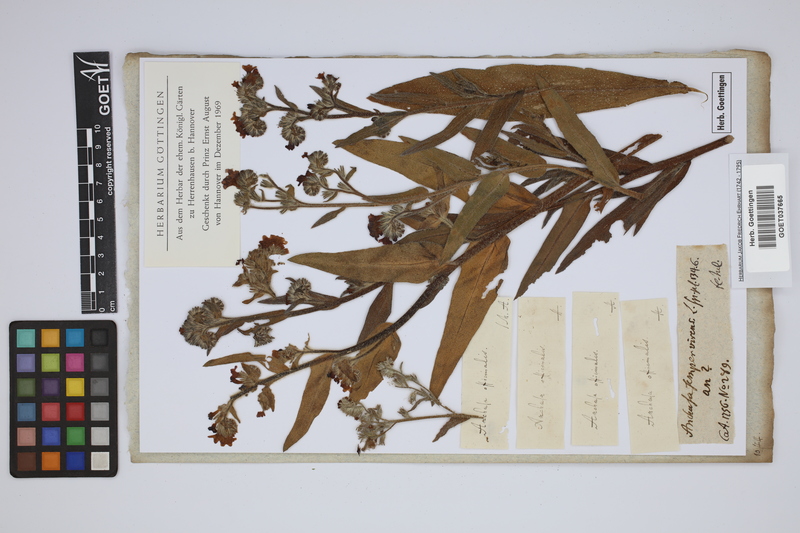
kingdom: Plantae
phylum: Tracheophyta
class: Magnoliopsida
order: Boraginales
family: Boraginaceae
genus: Anchusa
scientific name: Anchusa officinalis
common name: Alkanet
